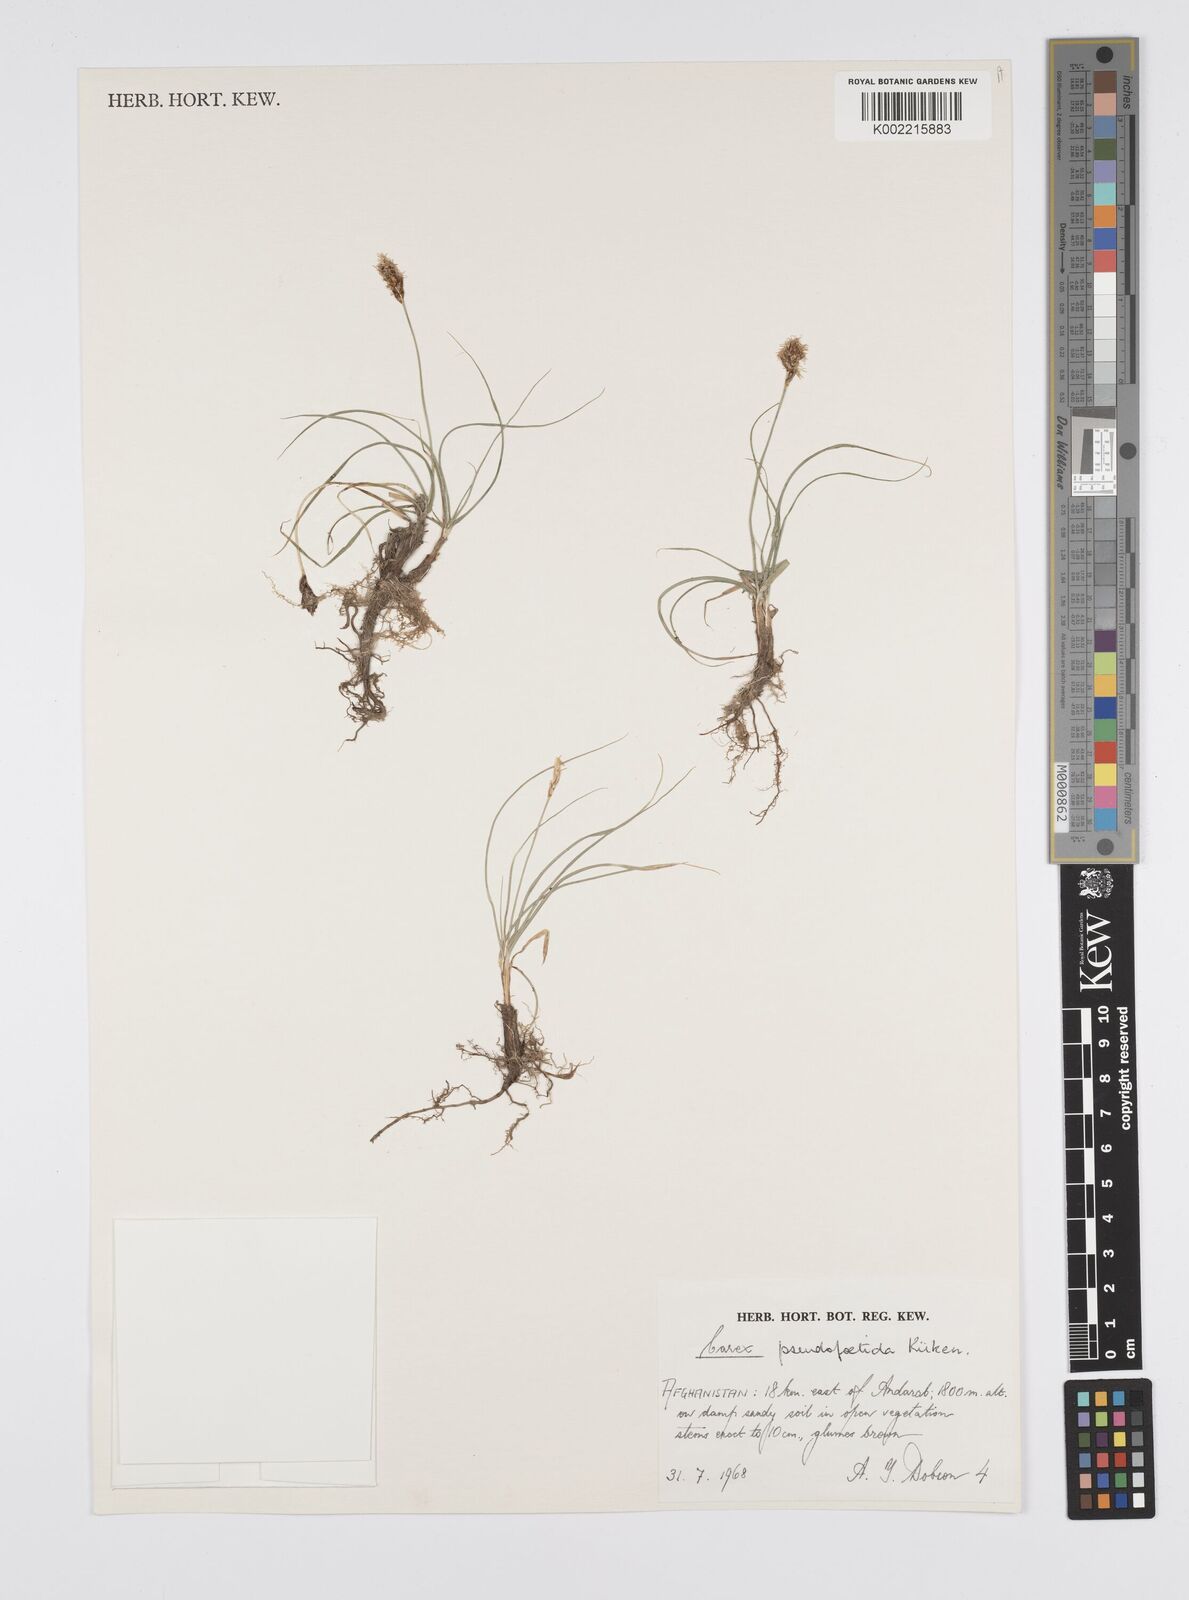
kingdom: Plantae
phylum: Tracheophyta
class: Liliopsida
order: Poales
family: Cyperaceae
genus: Carex
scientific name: Carex pseudofoetida
